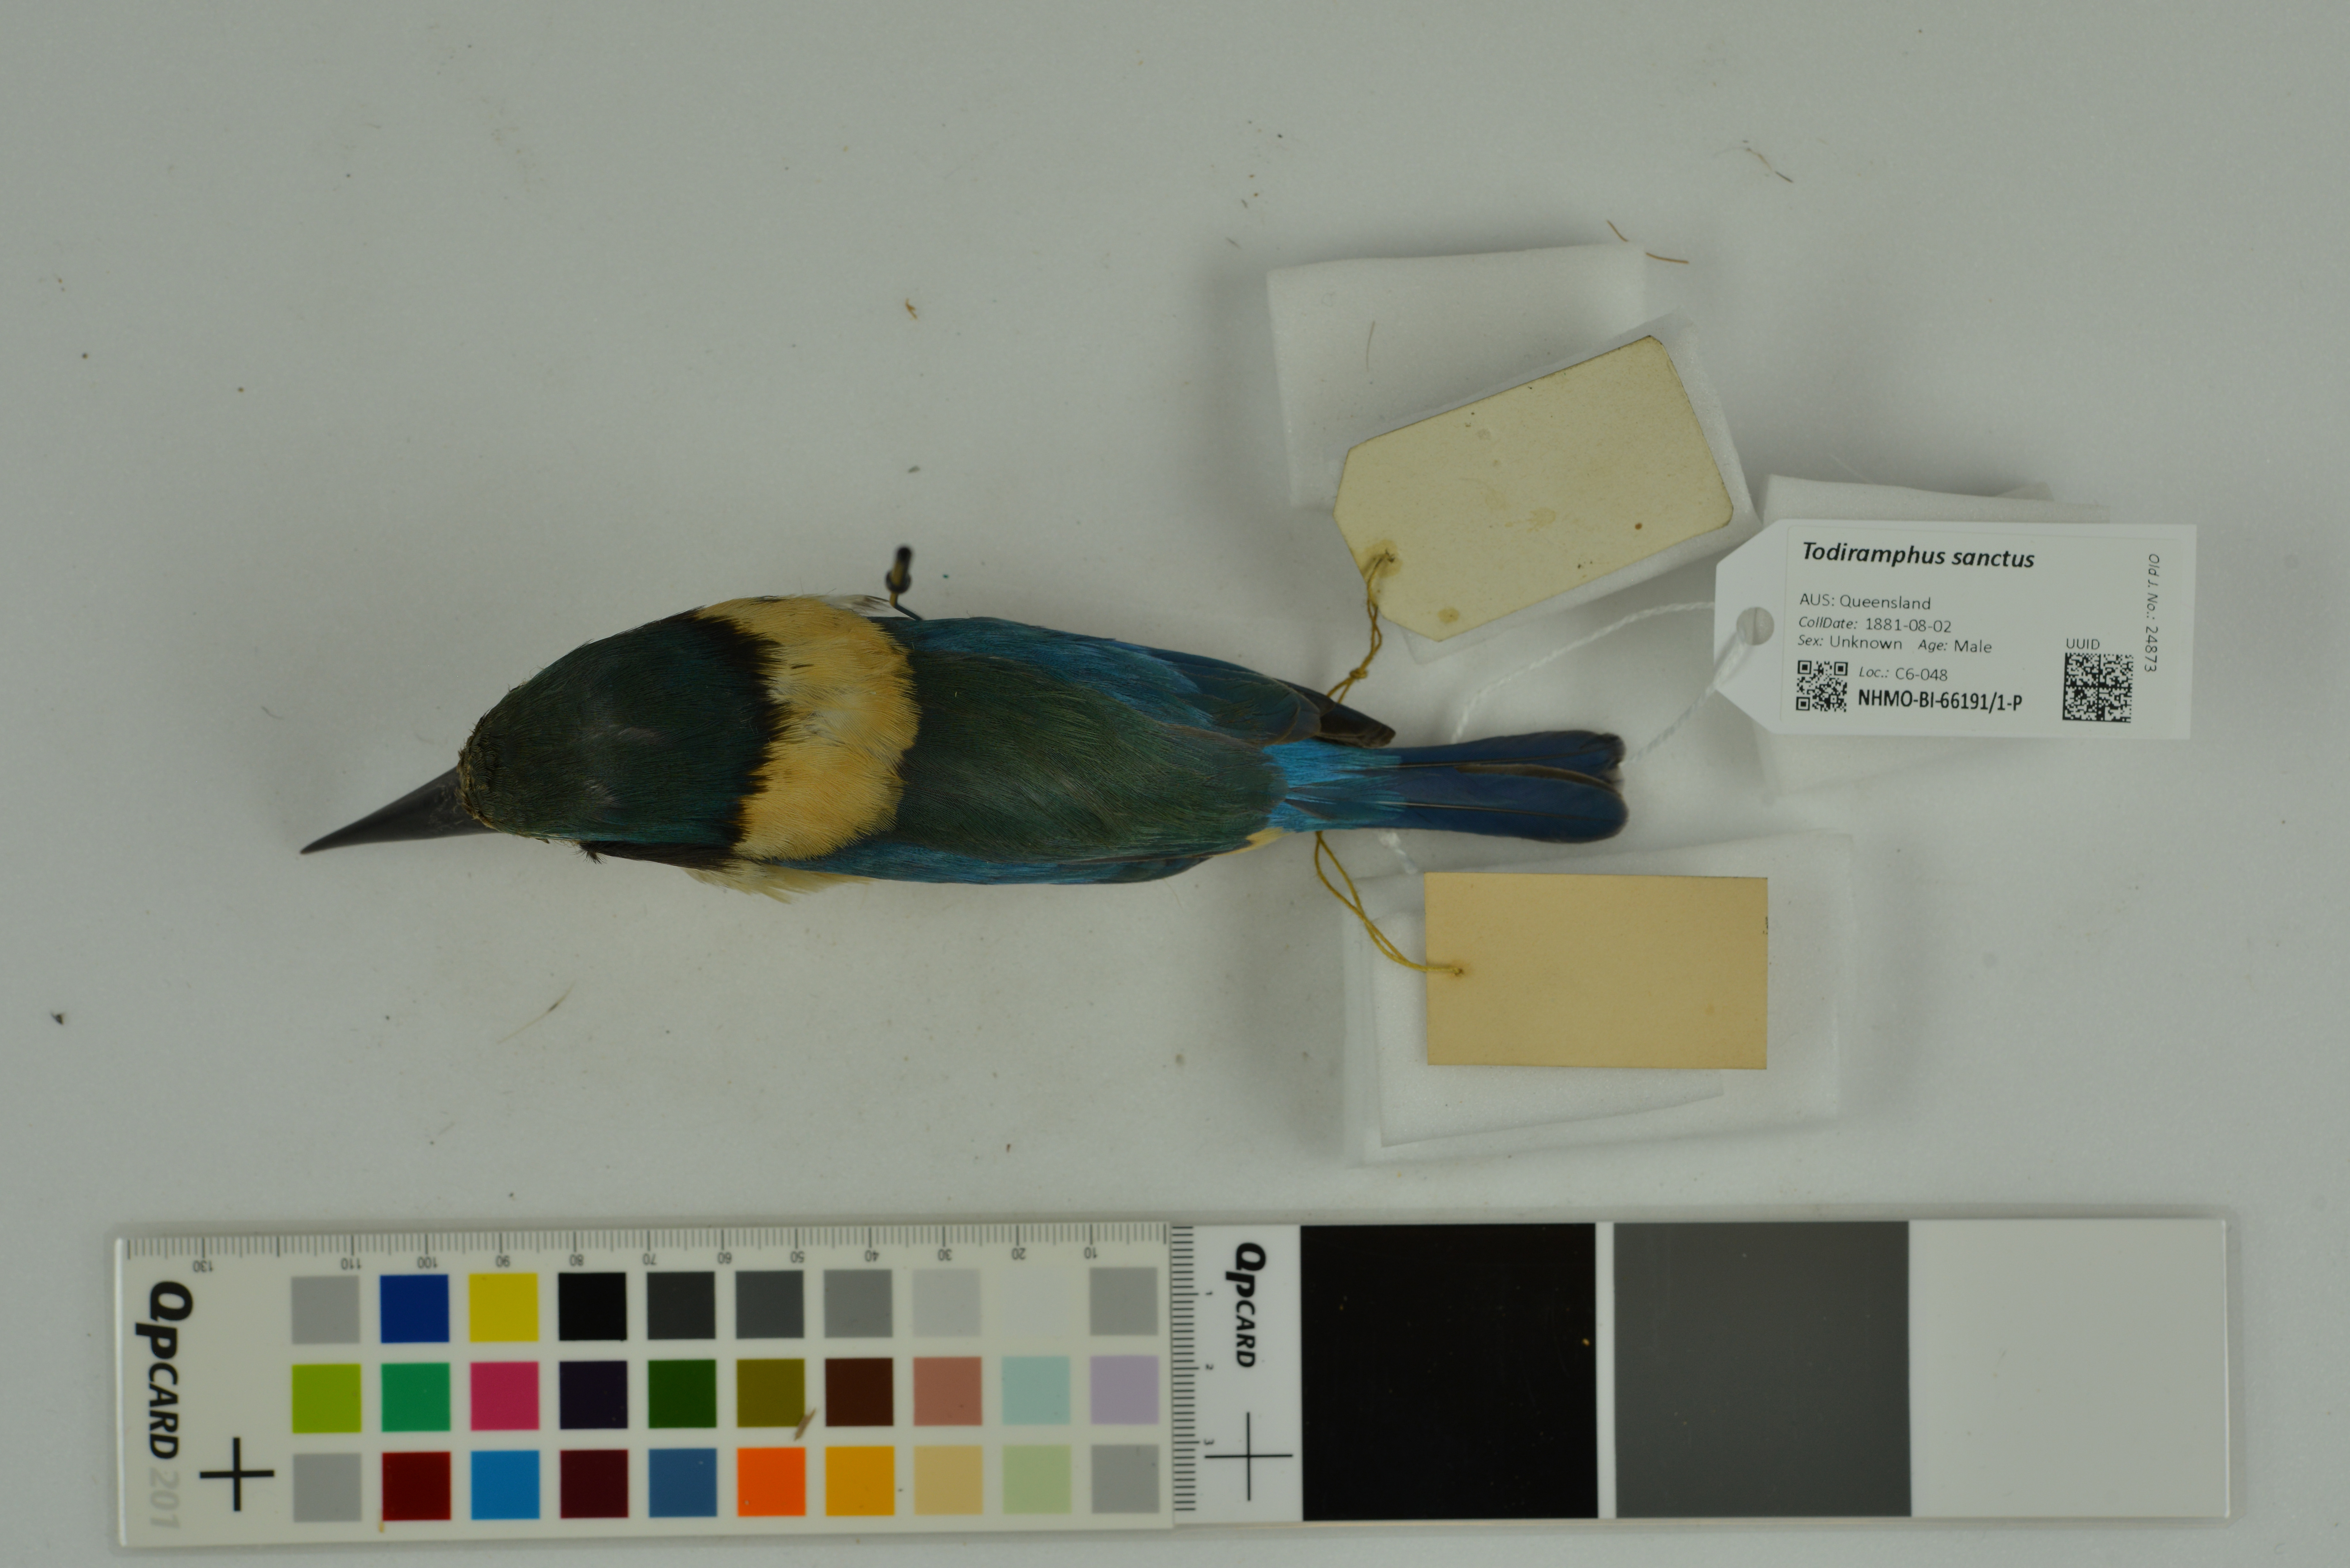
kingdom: Animalia
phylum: Chordata
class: Aves
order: Coraciiformes
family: Alcedinidae
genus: Todiramphus
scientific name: Todiramphus sanctus
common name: Sacred kingfisher
